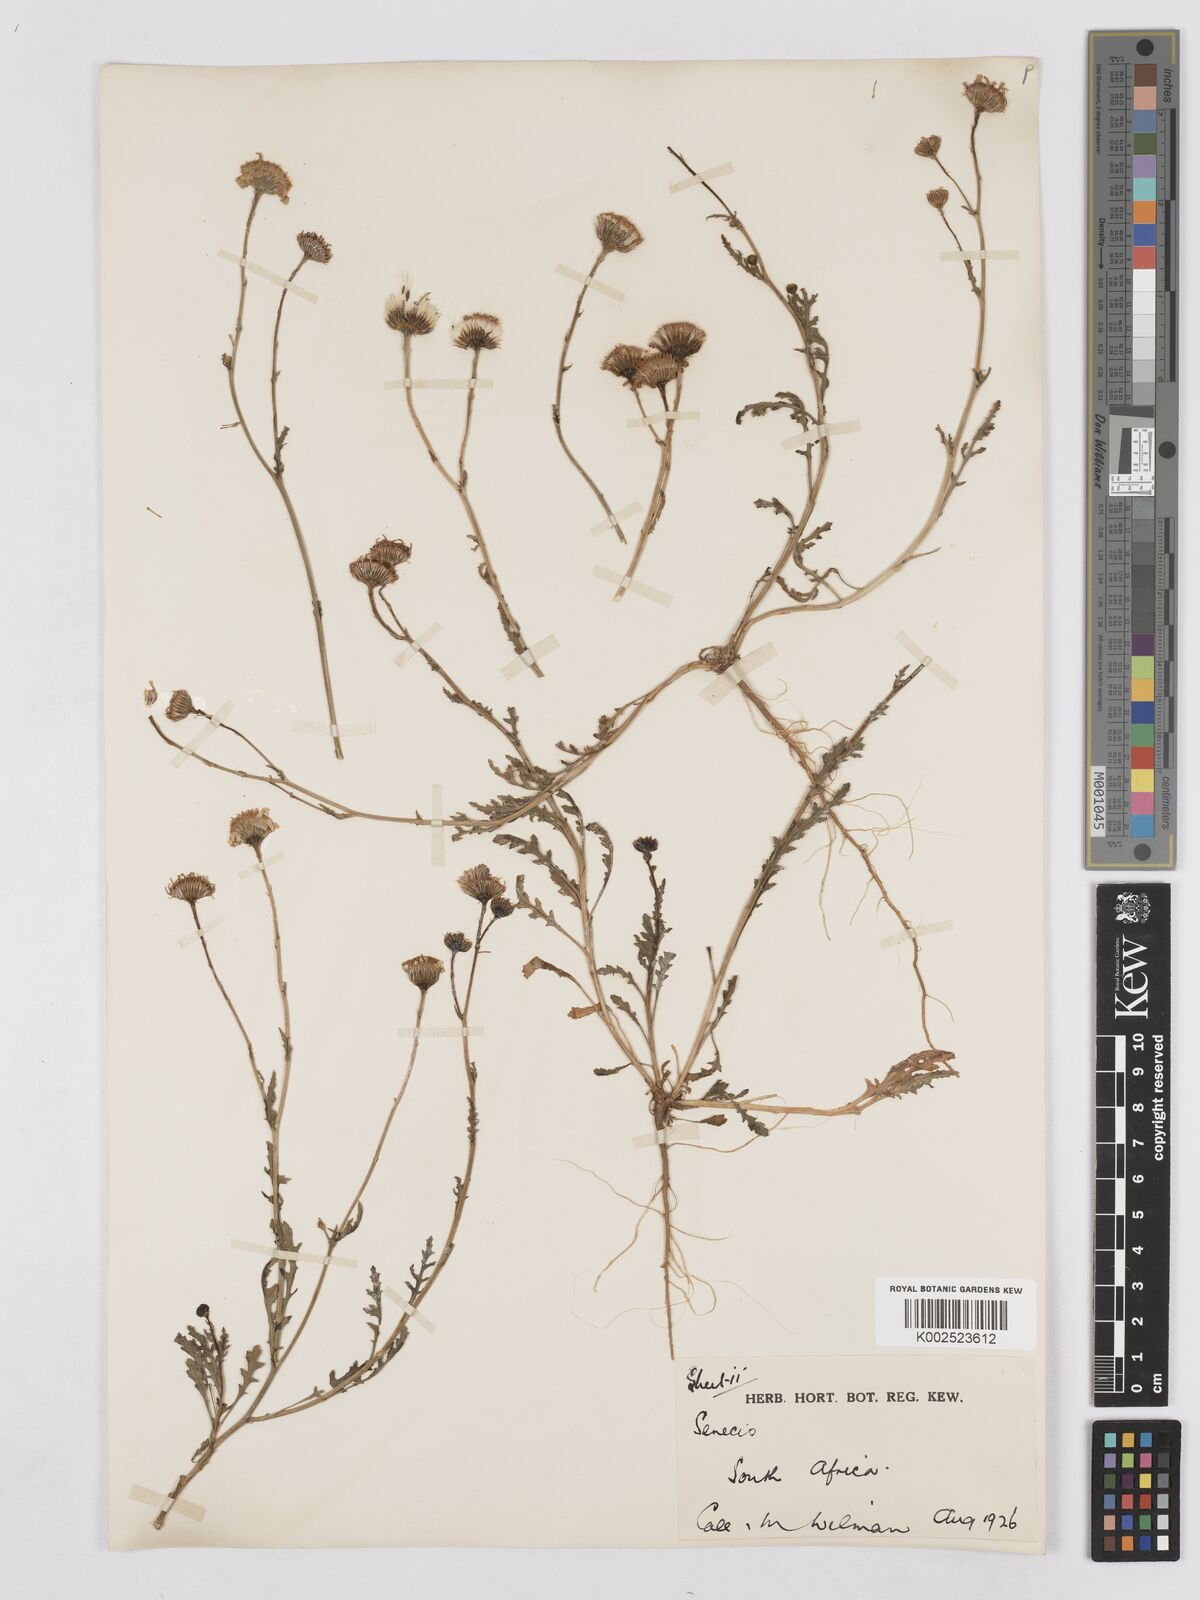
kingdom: Plantae
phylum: Tracheophyta
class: Magnoliopsida
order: Asterales
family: Asteraceae
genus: Senecio
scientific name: Senecio
